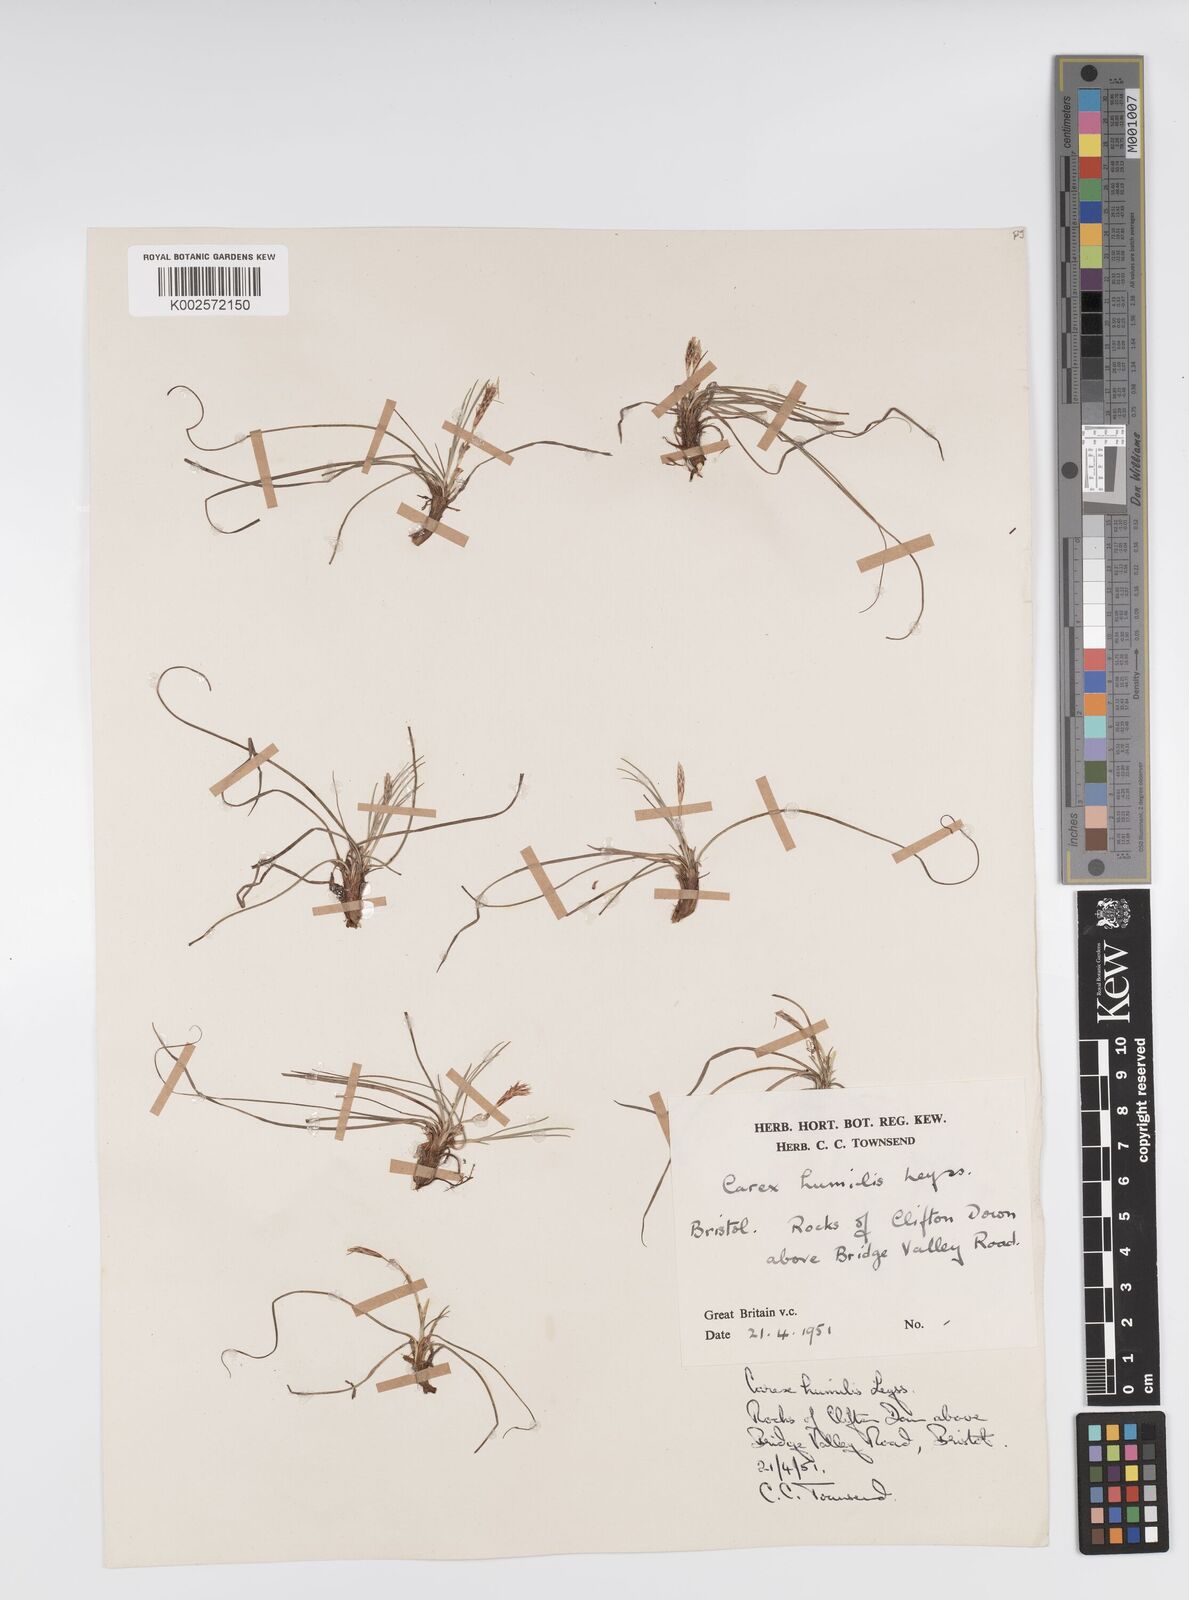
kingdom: Plantae
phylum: Tracheophyta
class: Liliopsida
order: Poales
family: Cyperaceae
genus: Carex
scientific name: Carex humilis
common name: Dwarf sedge
